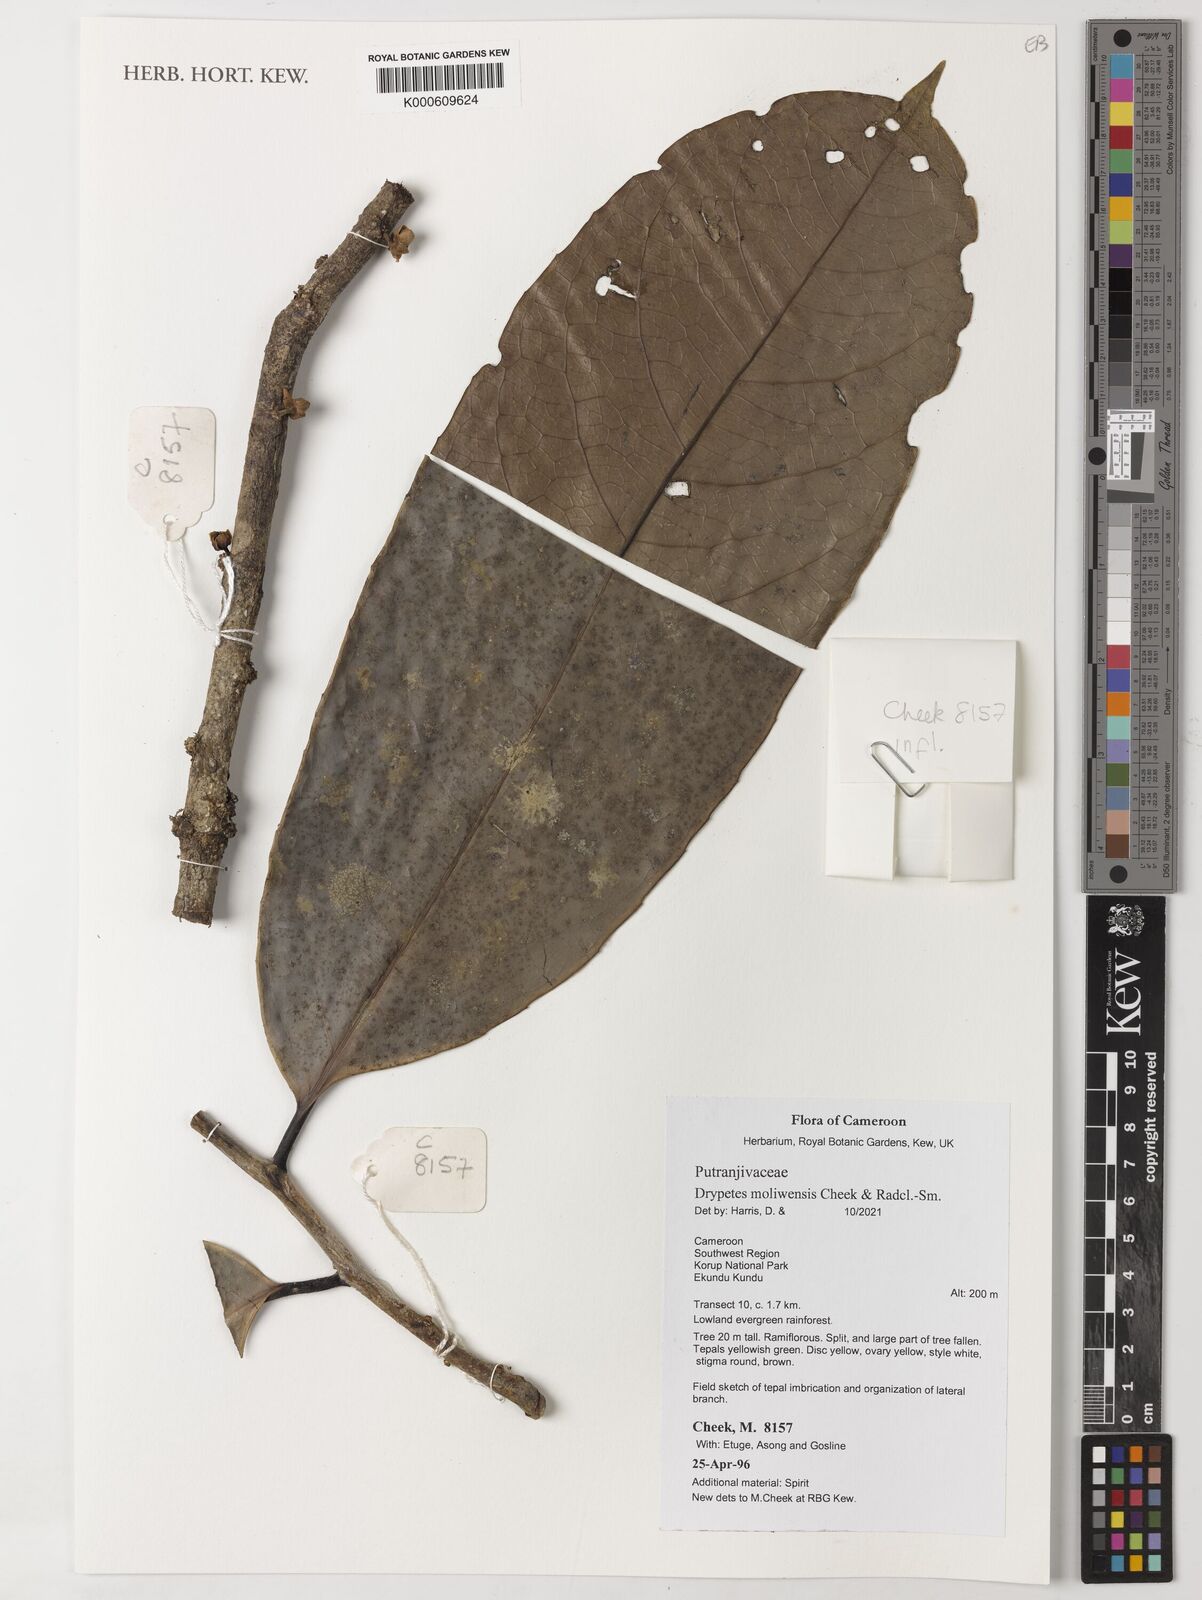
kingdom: Plantae
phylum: Tracheophyta
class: Magnoliopsida
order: Malpighiales
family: Putranjivaceae
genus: Drypetes
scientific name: Drypetes moliwensis
